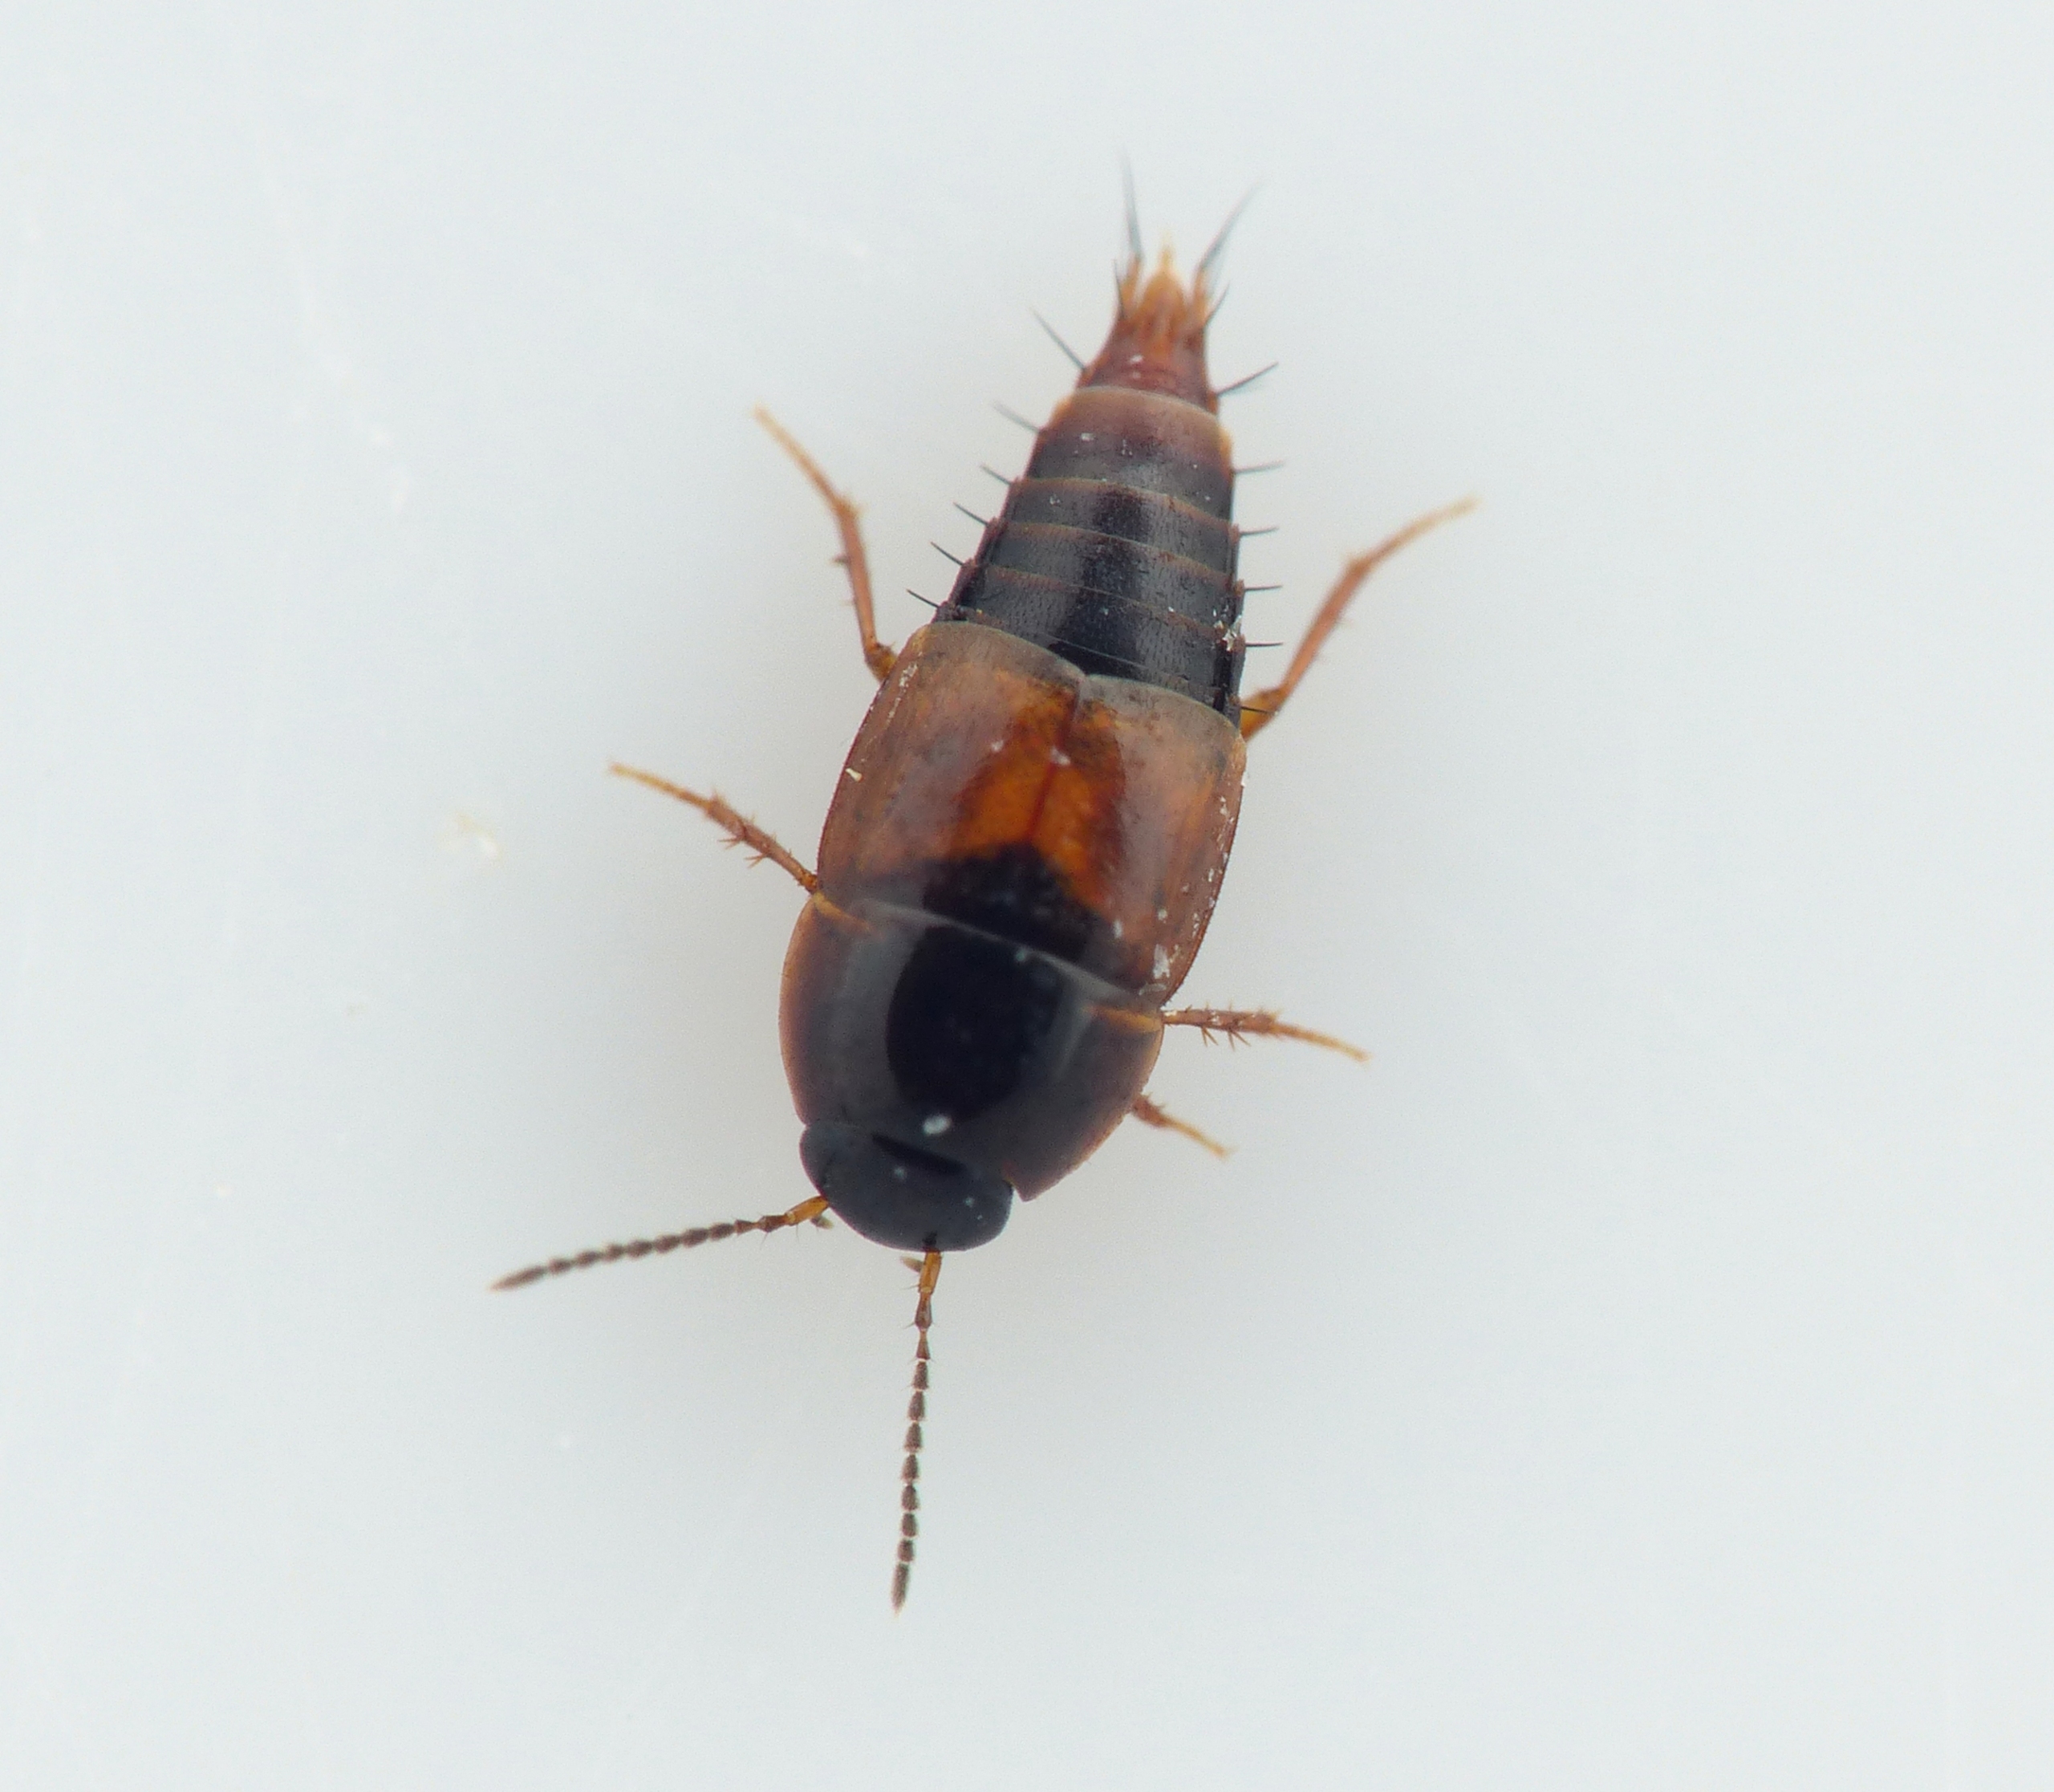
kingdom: Animalia
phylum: Arthropoda
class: Insecta
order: Coleoptera
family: Staphylinidae
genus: Cilea
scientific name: Cilea exilis
